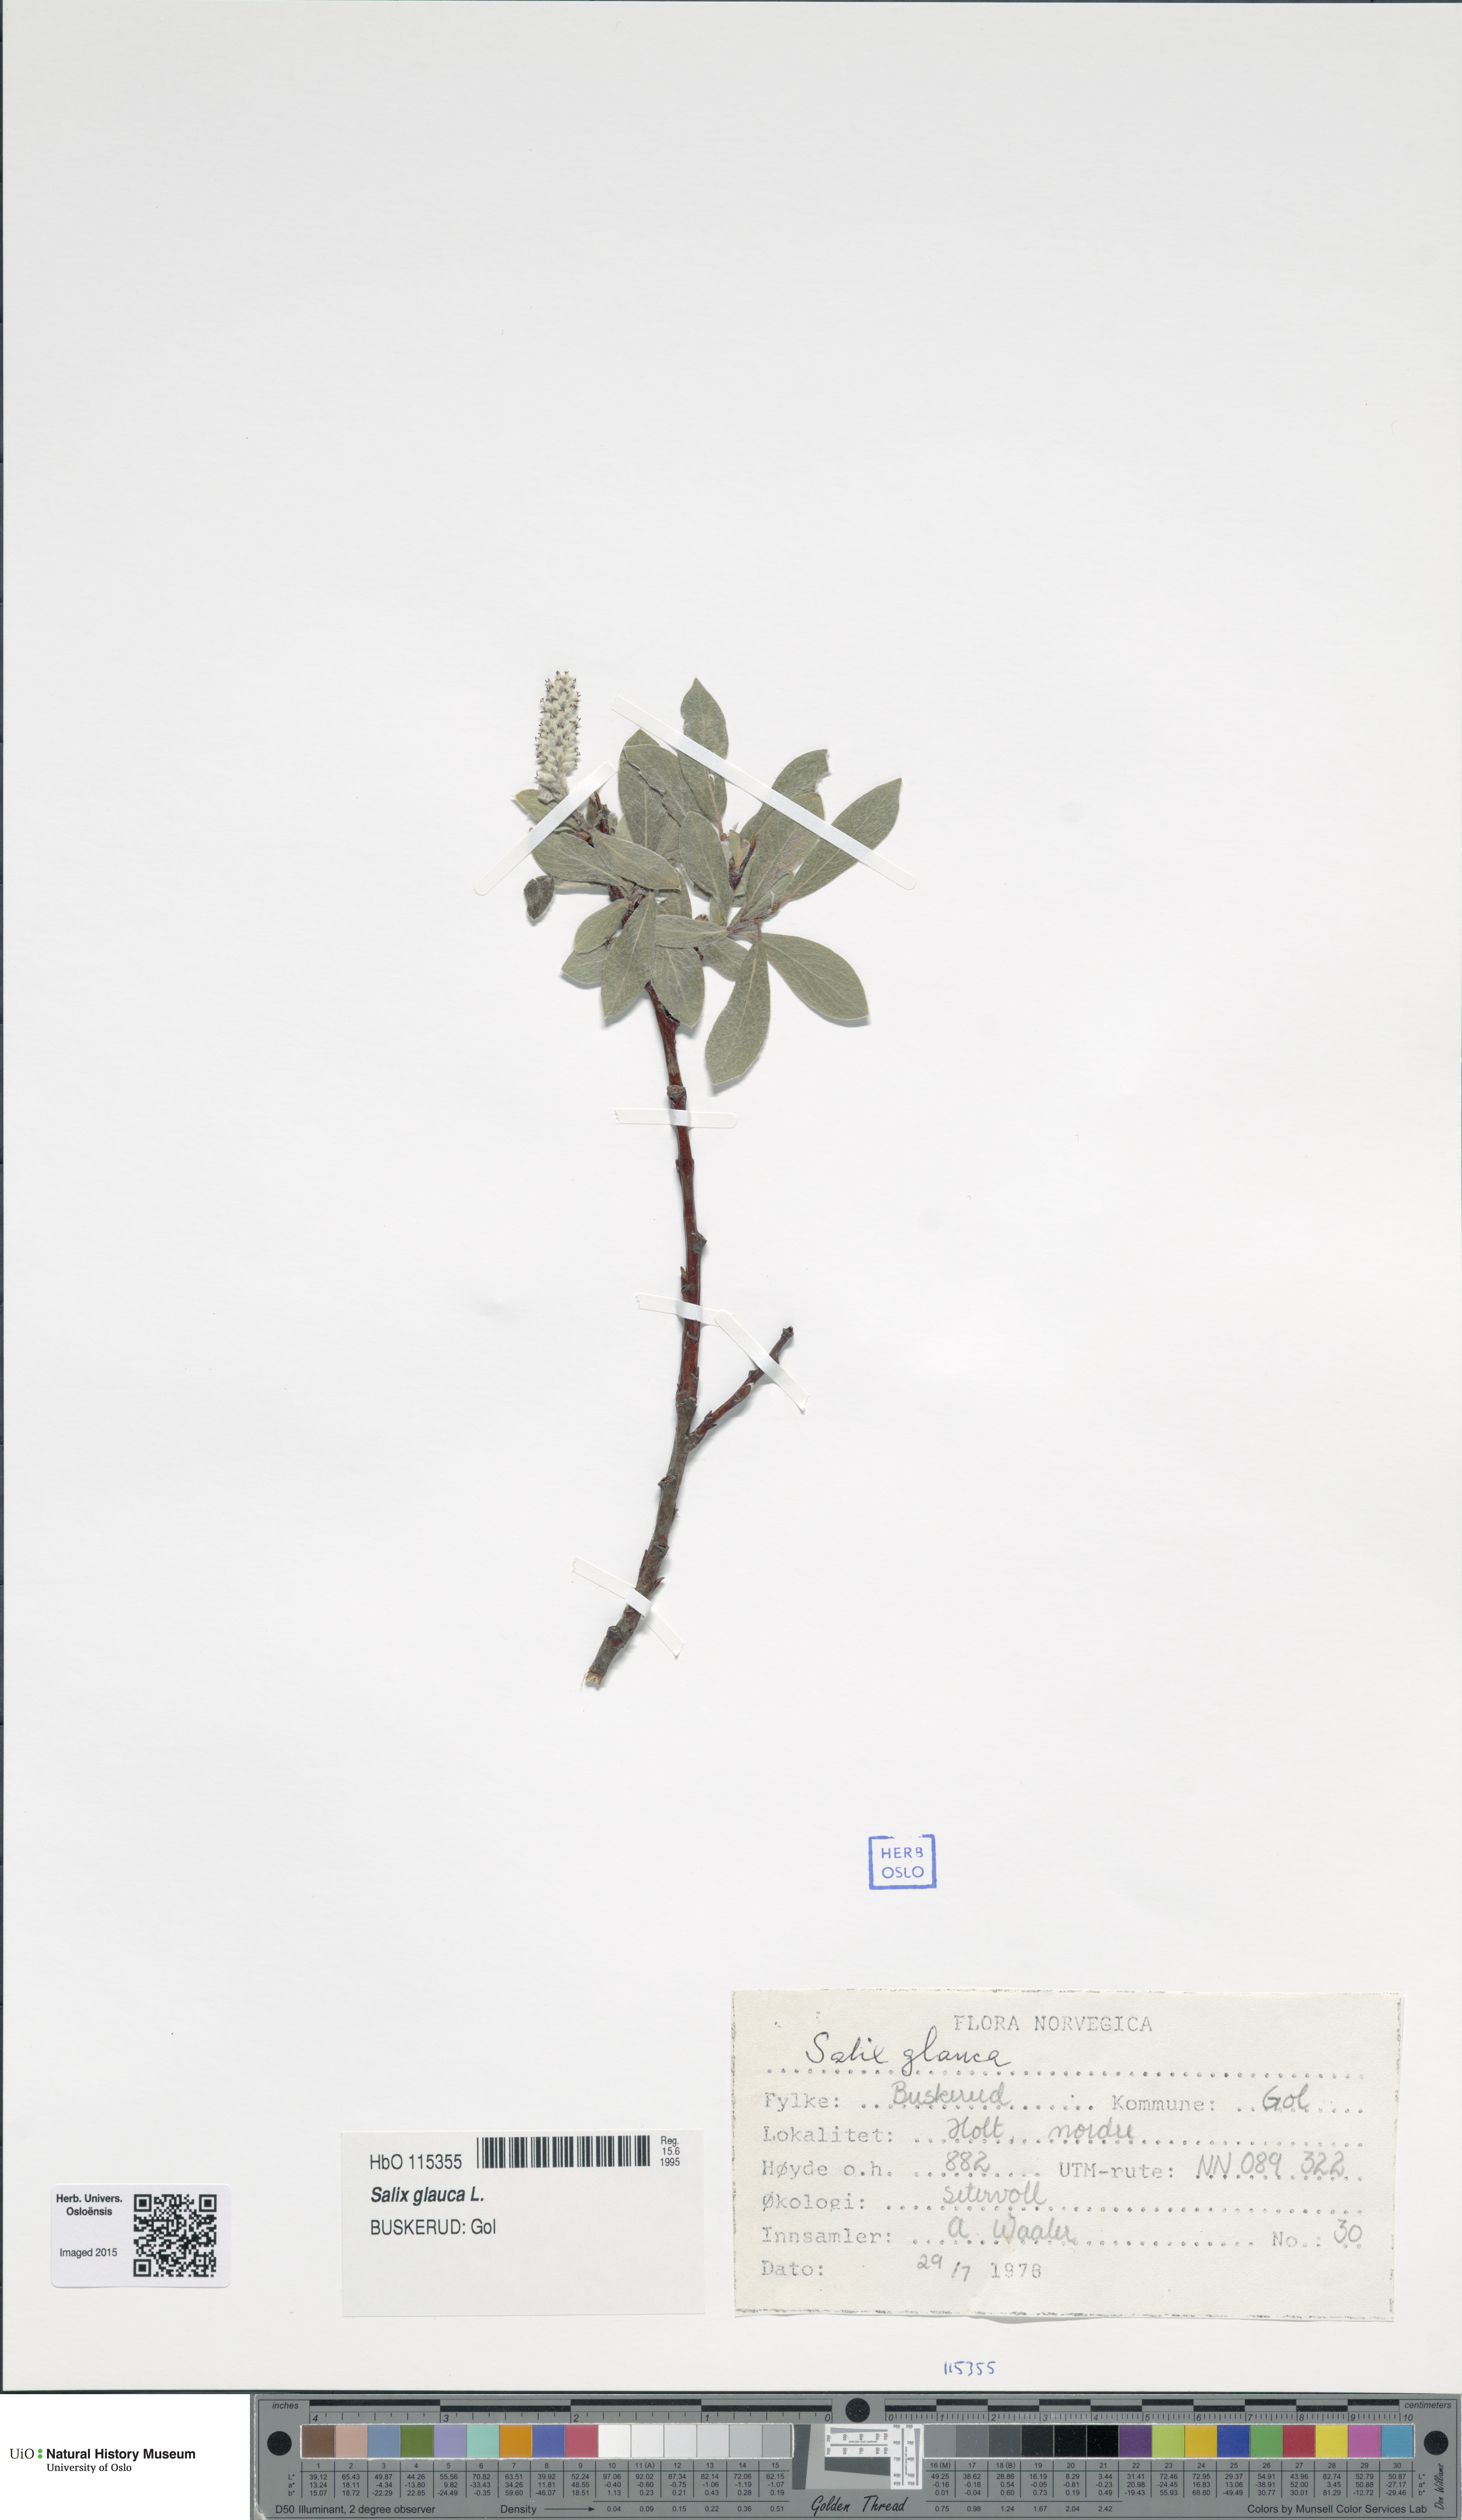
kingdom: Plantae
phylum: Tracheophyta
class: Magnoliopsida
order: Malpighiales
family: Salicaceae
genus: Salix
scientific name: Salix glauca
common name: Glaucous willow
